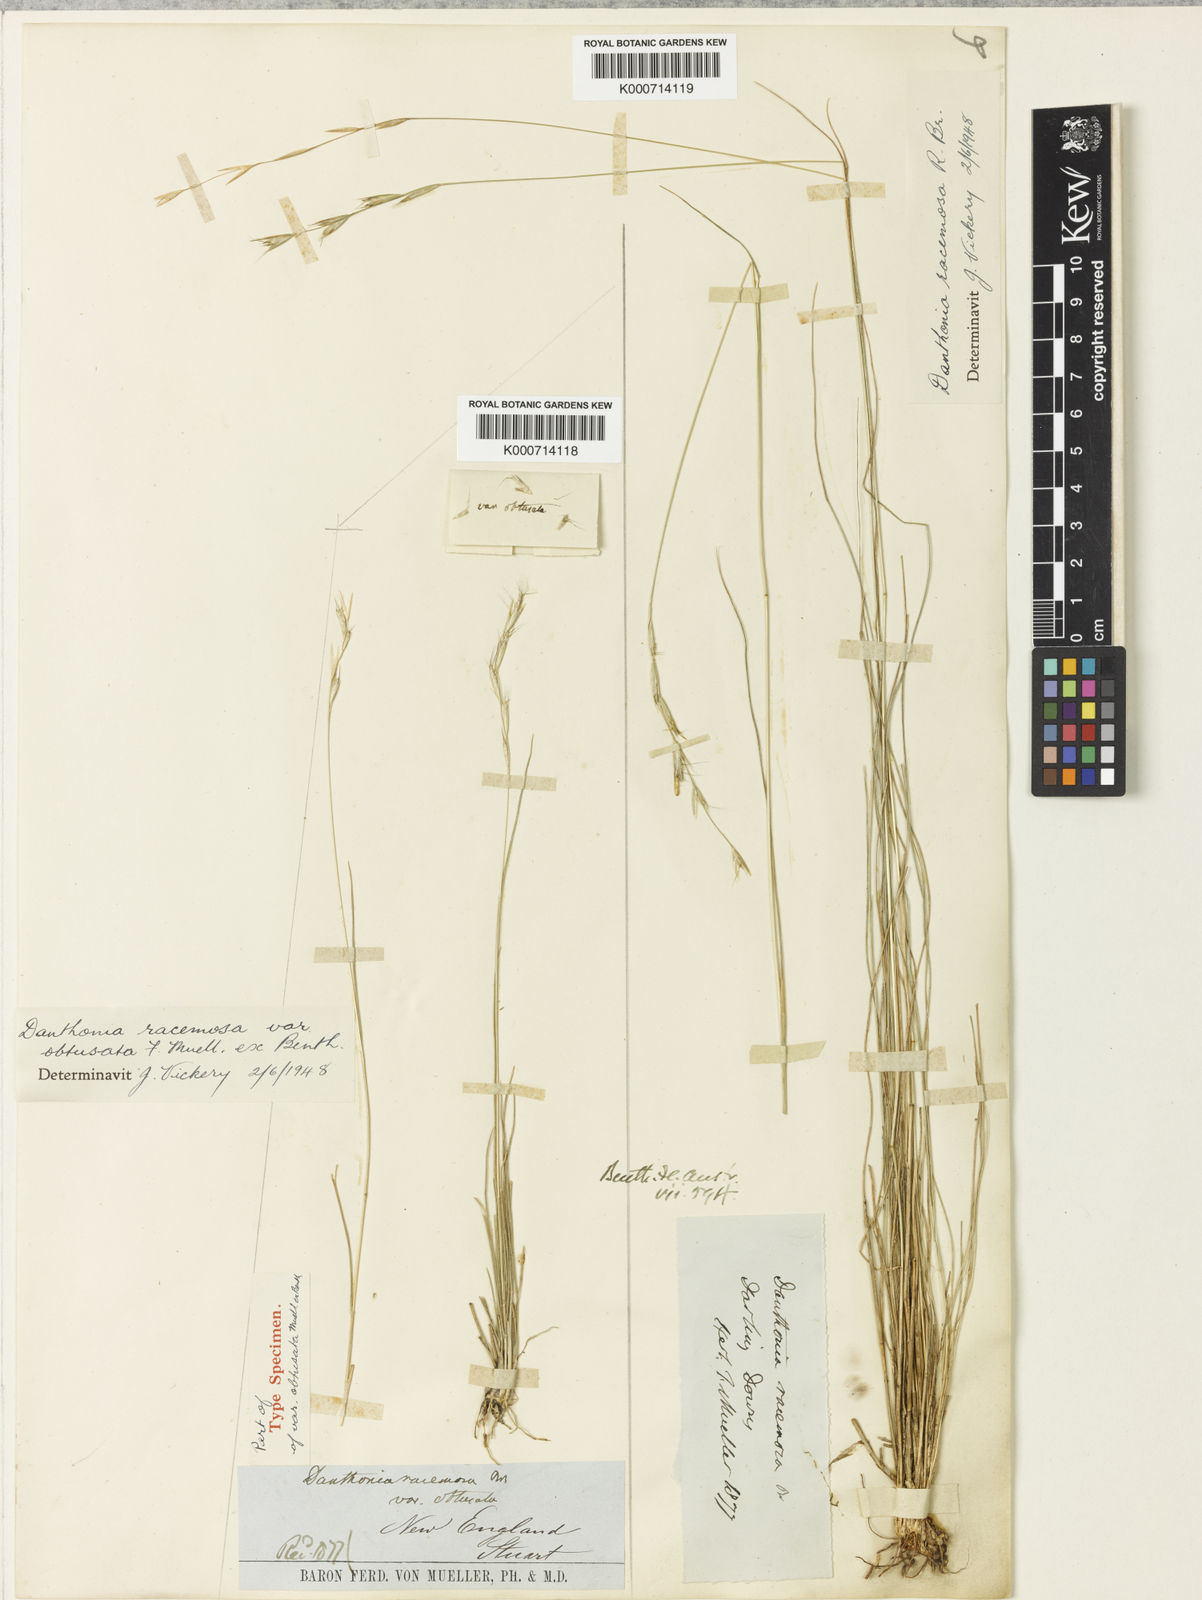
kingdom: Plantae
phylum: Tracheophyta
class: Liliopsida
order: Poales
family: Poaceae
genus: Rytidosperma
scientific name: Rytidosperma racemosum
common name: Wallaby-grass
